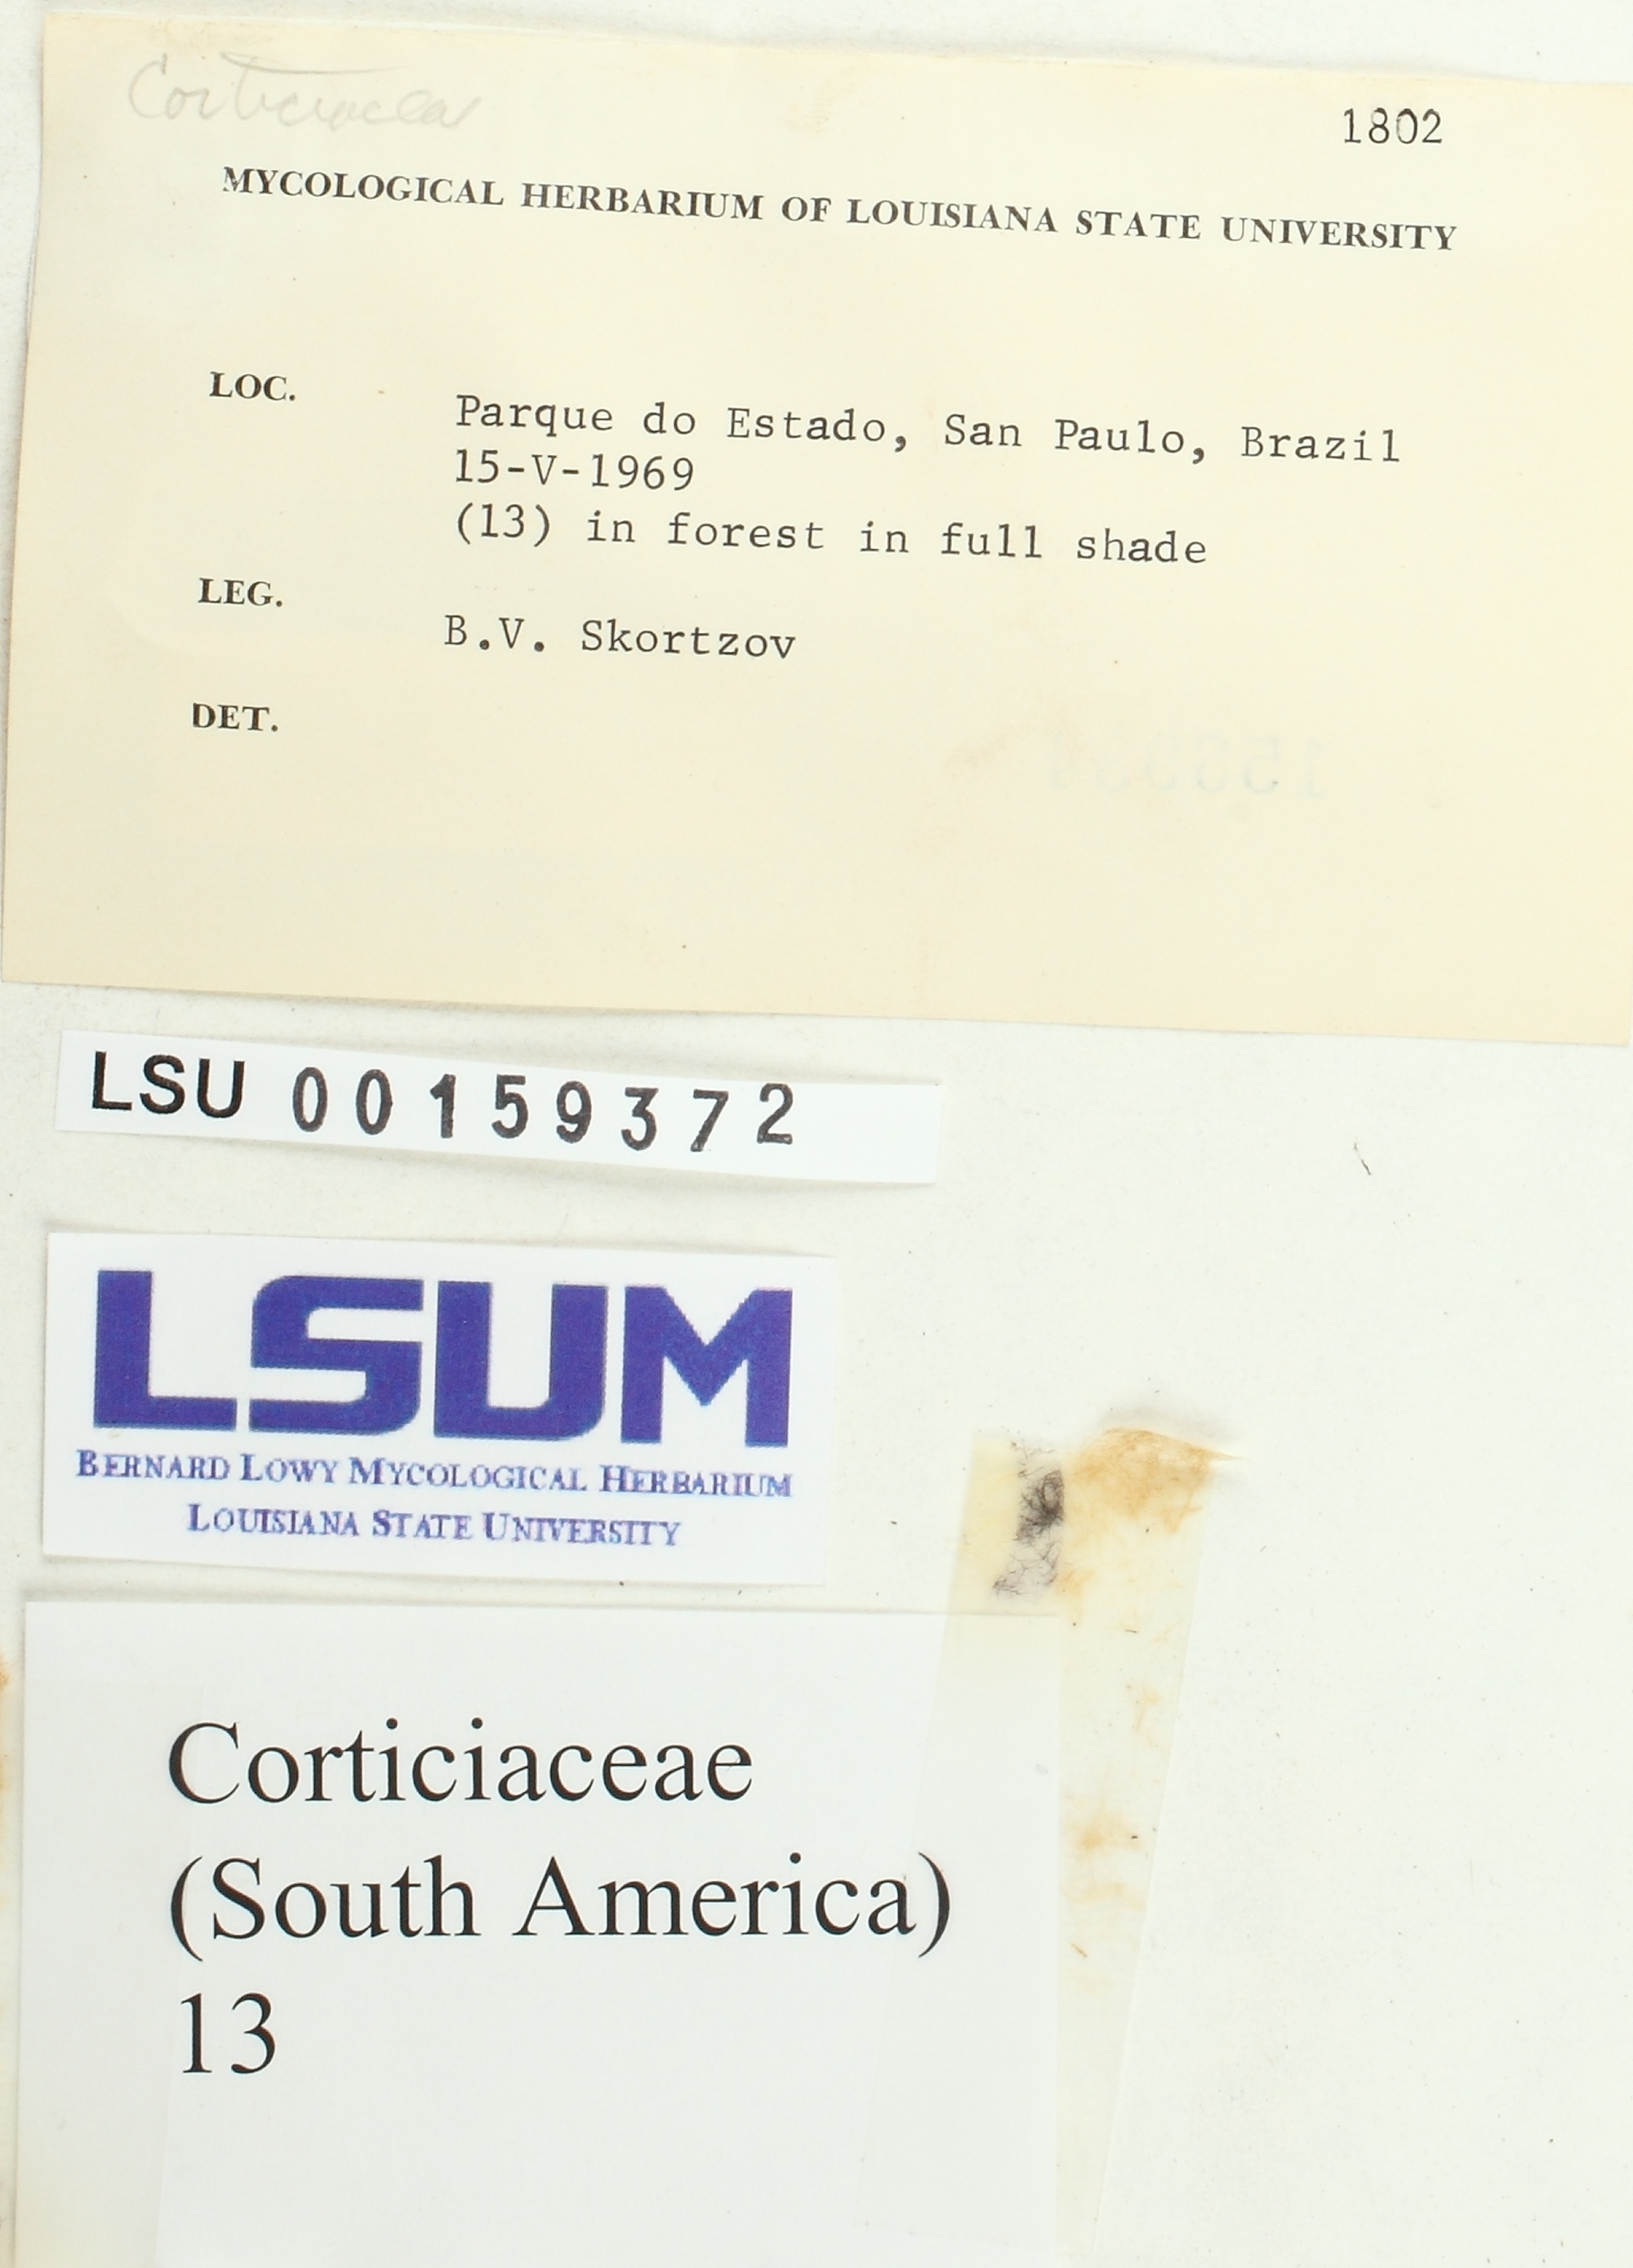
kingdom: Fungi
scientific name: Fungi
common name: Fungi
